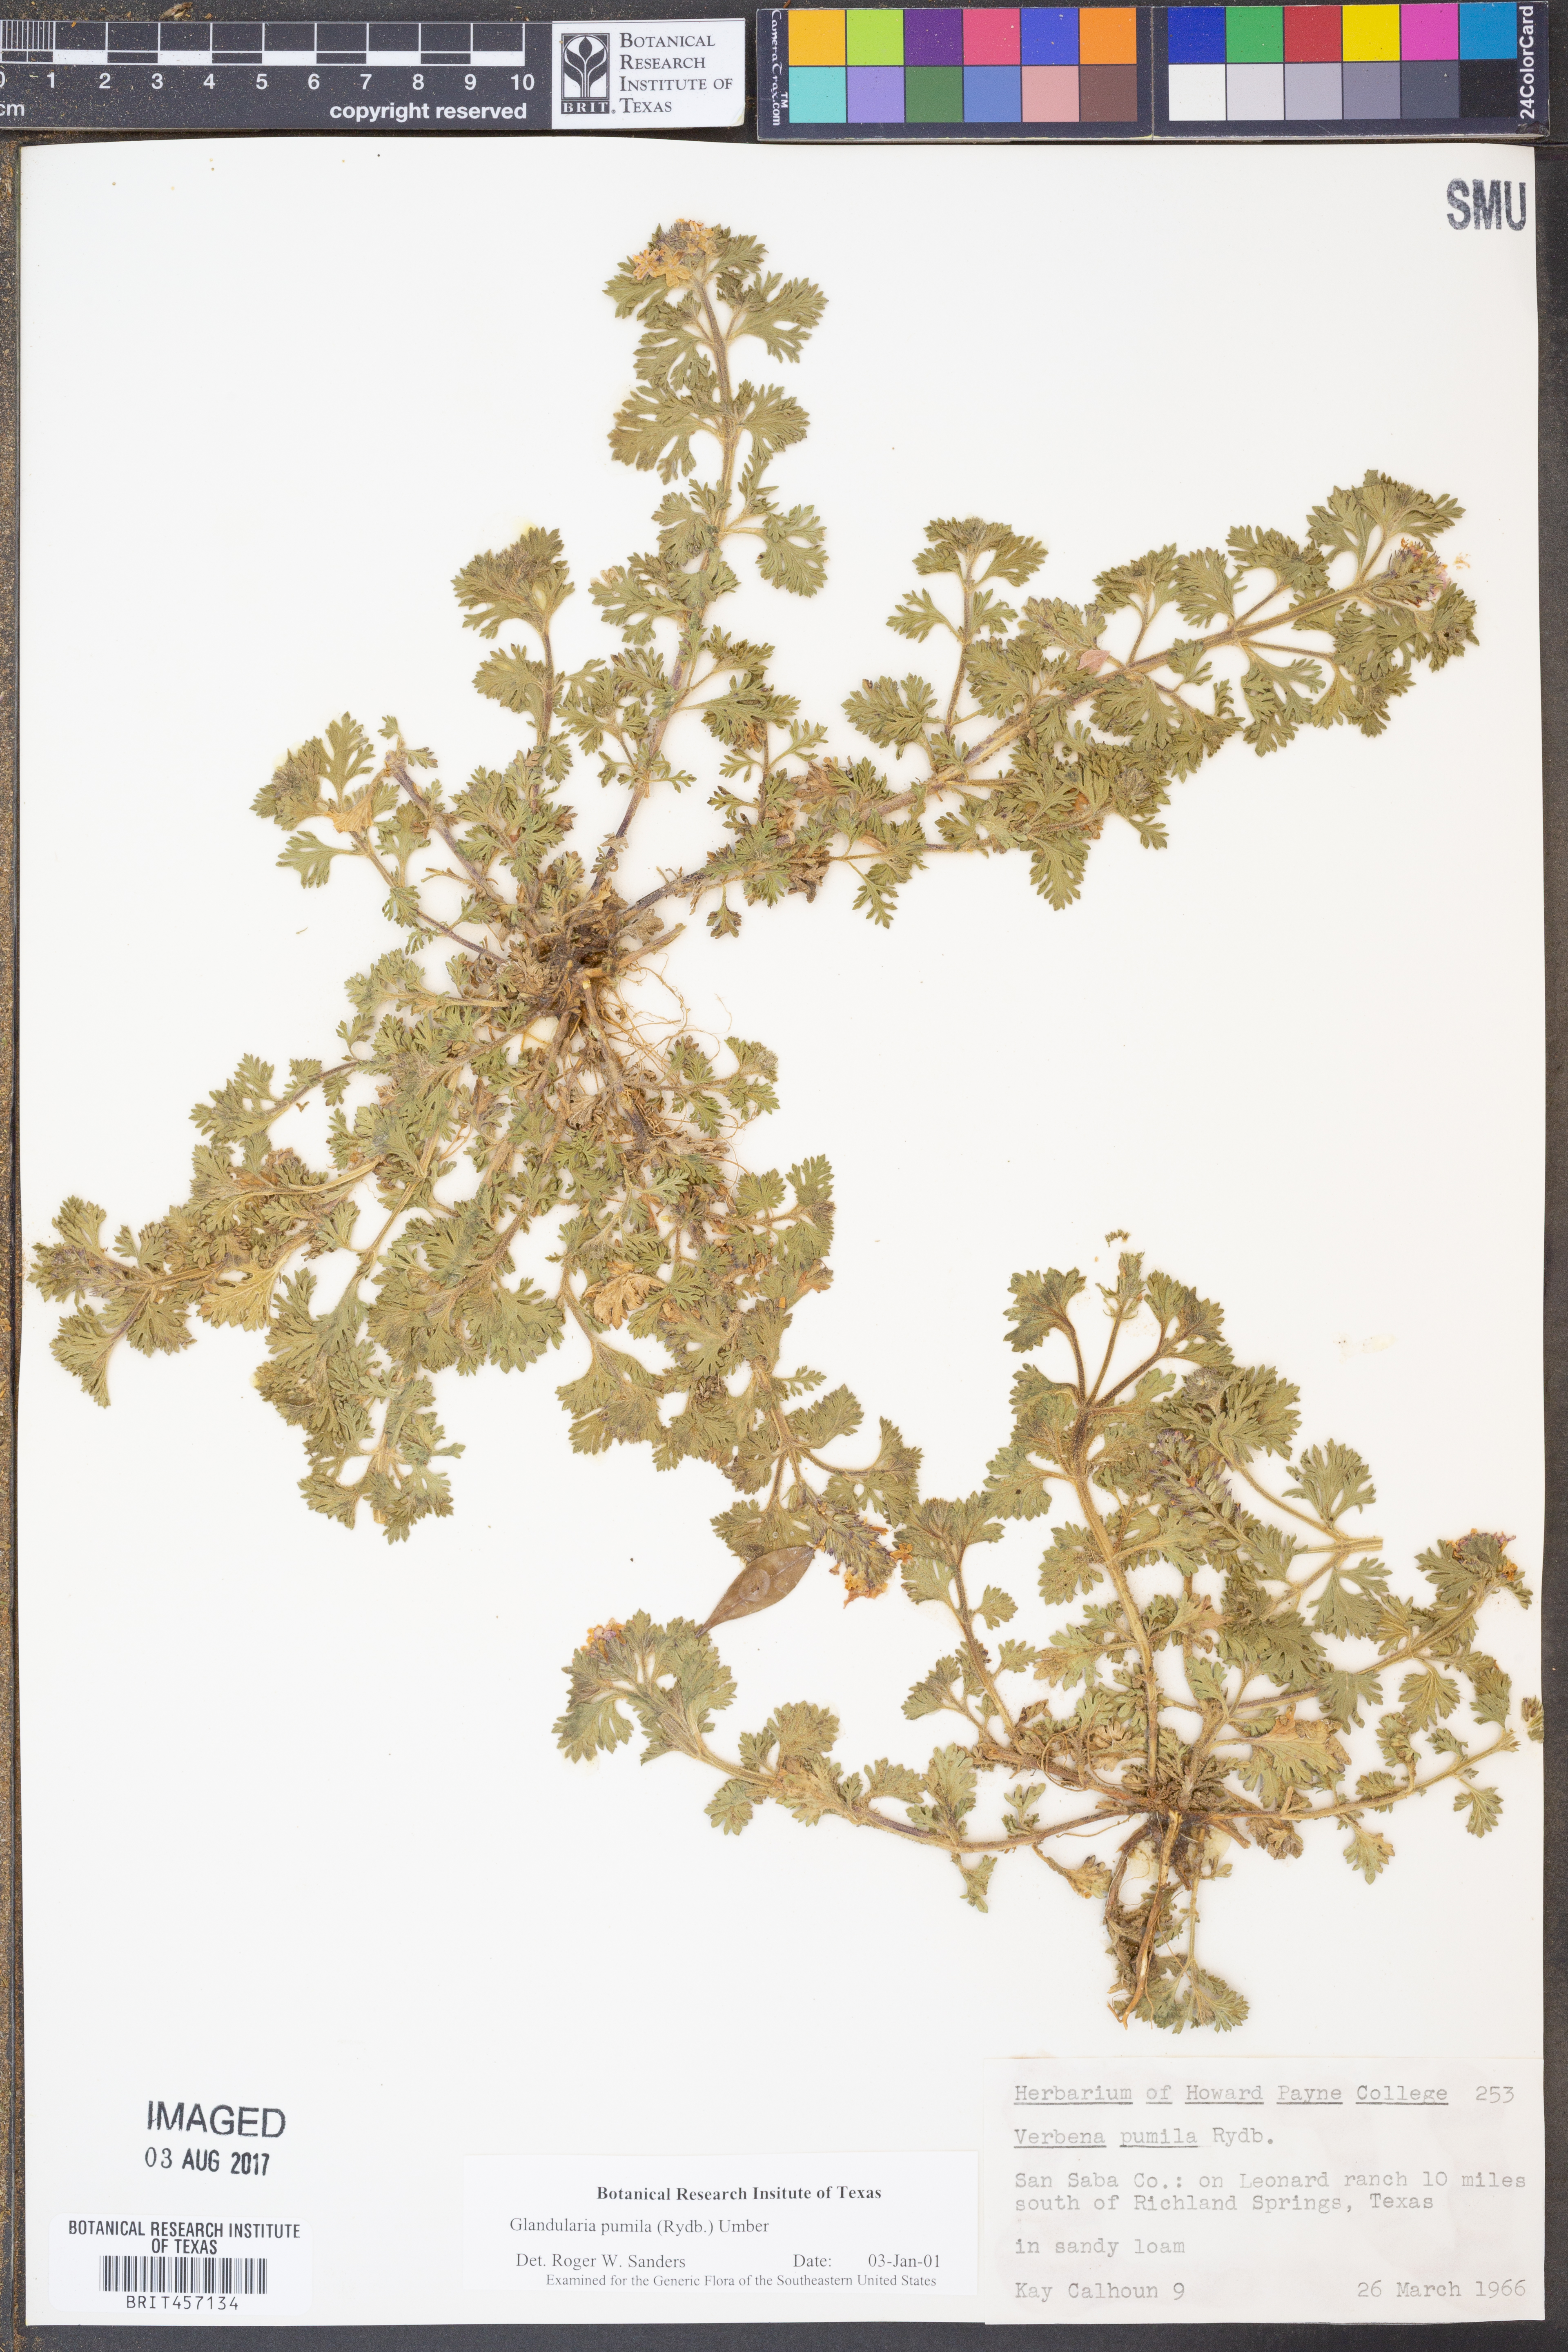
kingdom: Plantae
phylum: Tracheophyta
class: Magnoliopsida
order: Lamiales
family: Verbenaceae
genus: Verbena
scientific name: Verbena pumila
